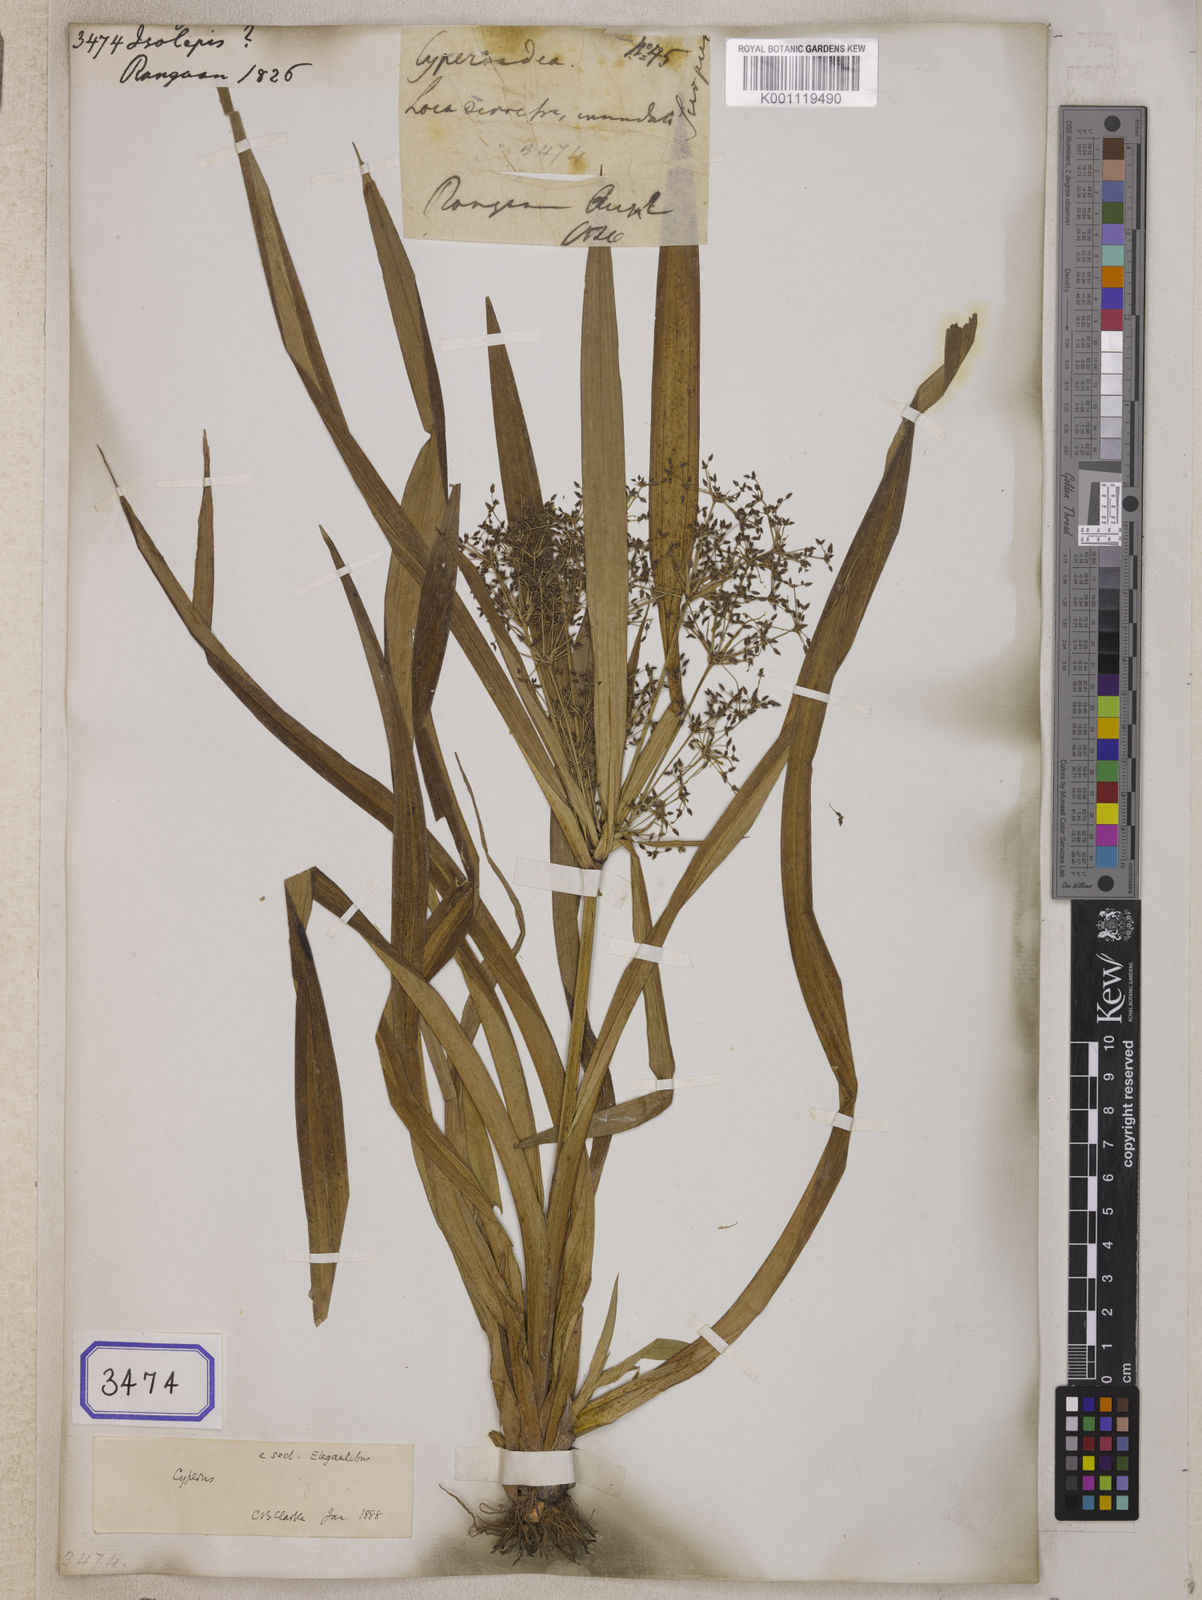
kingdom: Plantae
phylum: Tracheophyta
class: Liliopsida
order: Poales
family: Cyperaceae
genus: Isolepis
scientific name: Isolepis
